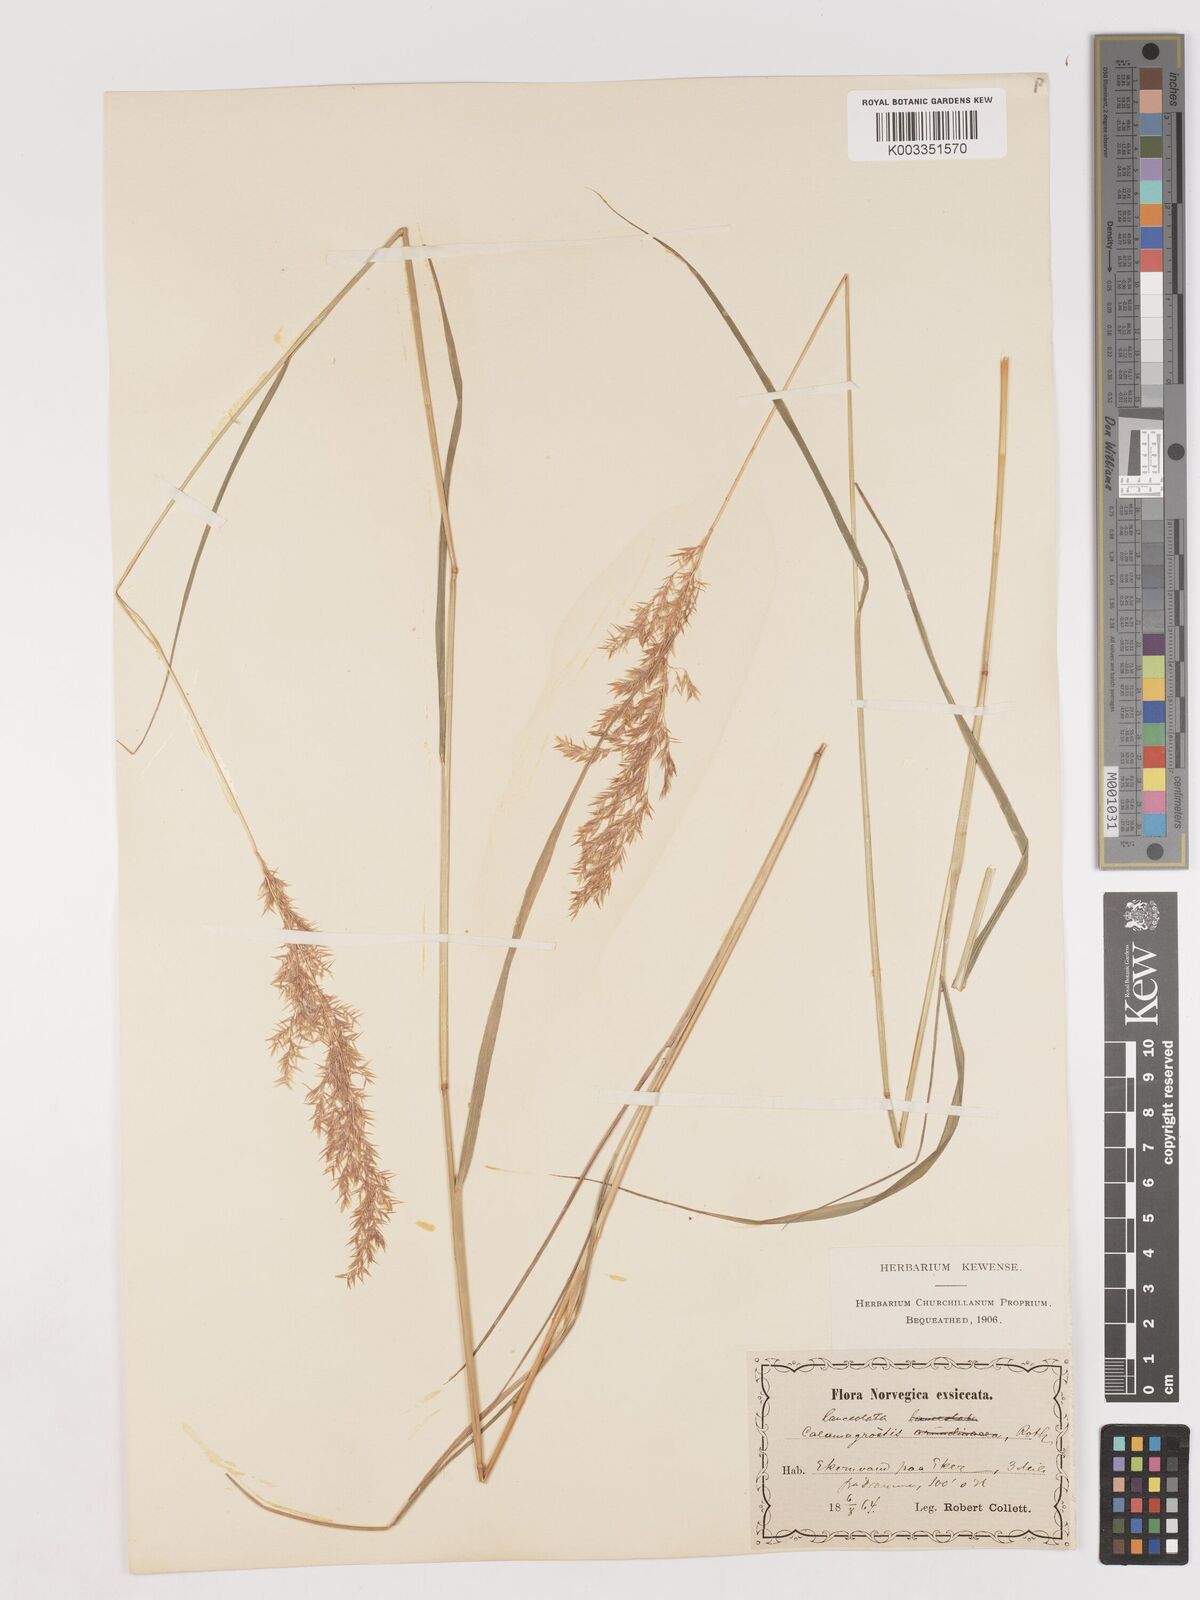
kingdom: Plantae
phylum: Tracheophyta
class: Liliopsida
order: Poales
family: Poaceae
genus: Calamagrostis
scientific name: Calamagrostis canescens
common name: Purple small-reed
